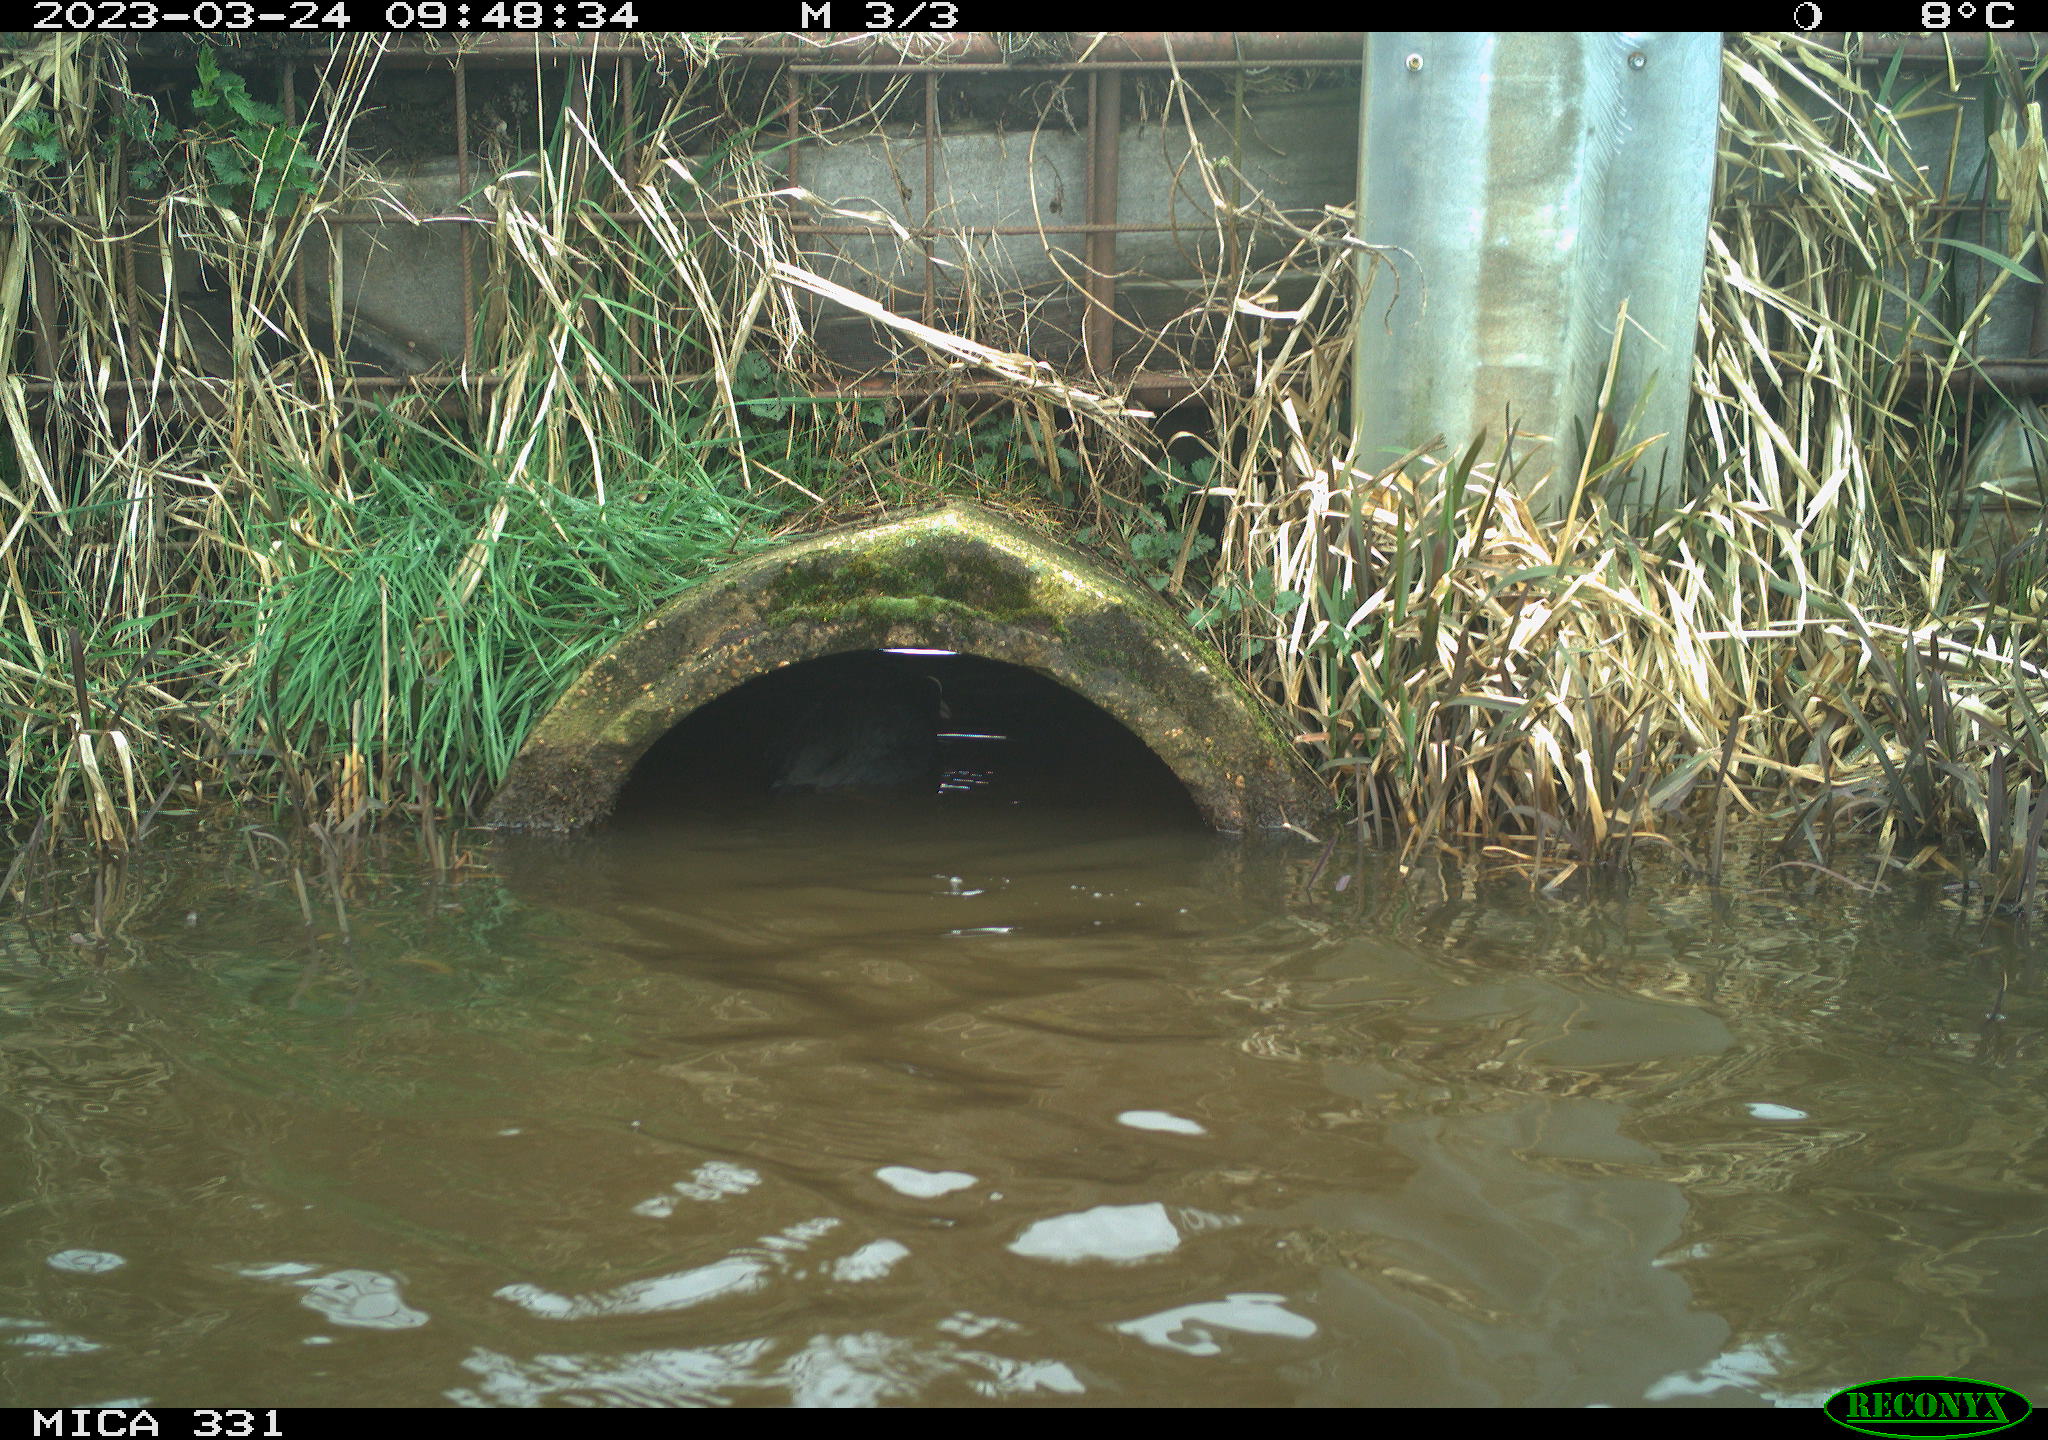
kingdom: Animalia
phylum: Chordata
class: Aves
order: Gruiformes
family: Rallidae
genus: Fulica
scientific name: Fulica atra
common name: Eurasian coot
